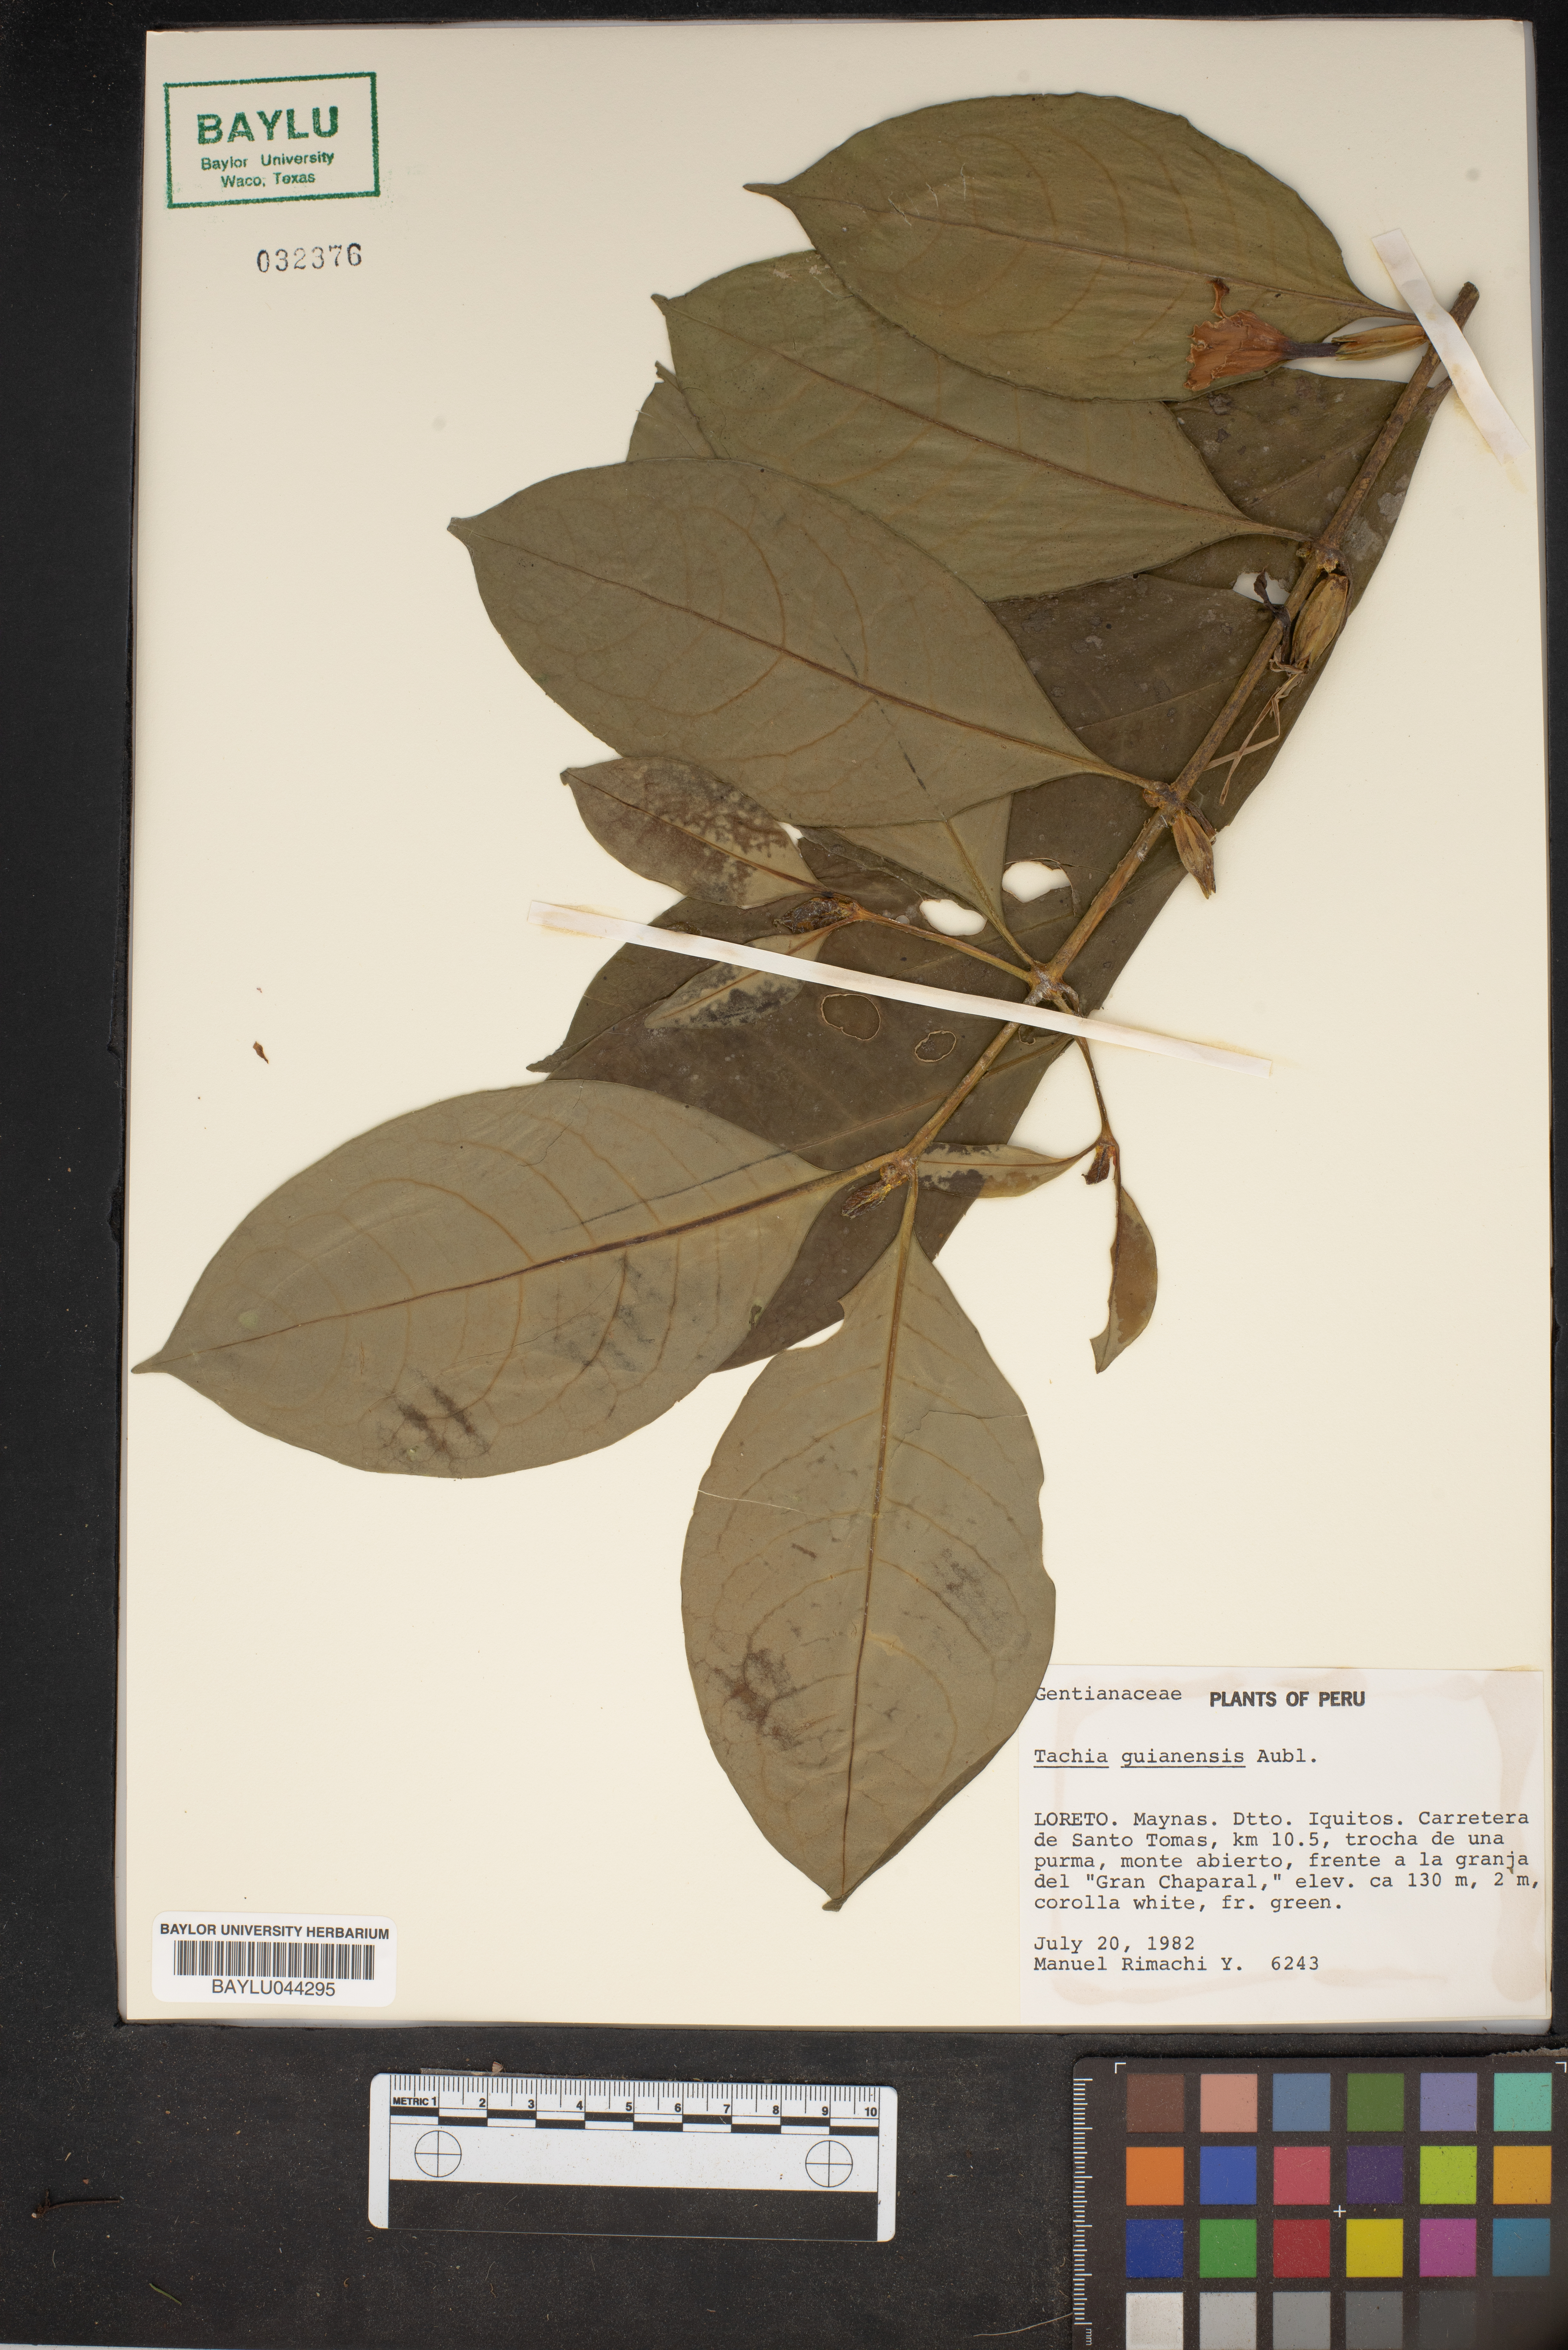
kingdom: Plantae
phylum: Tracheophyta
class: Magnoliopsida
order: Gentianales
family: Gentianaceae
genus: Tachia
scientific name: Tachia guianensis
